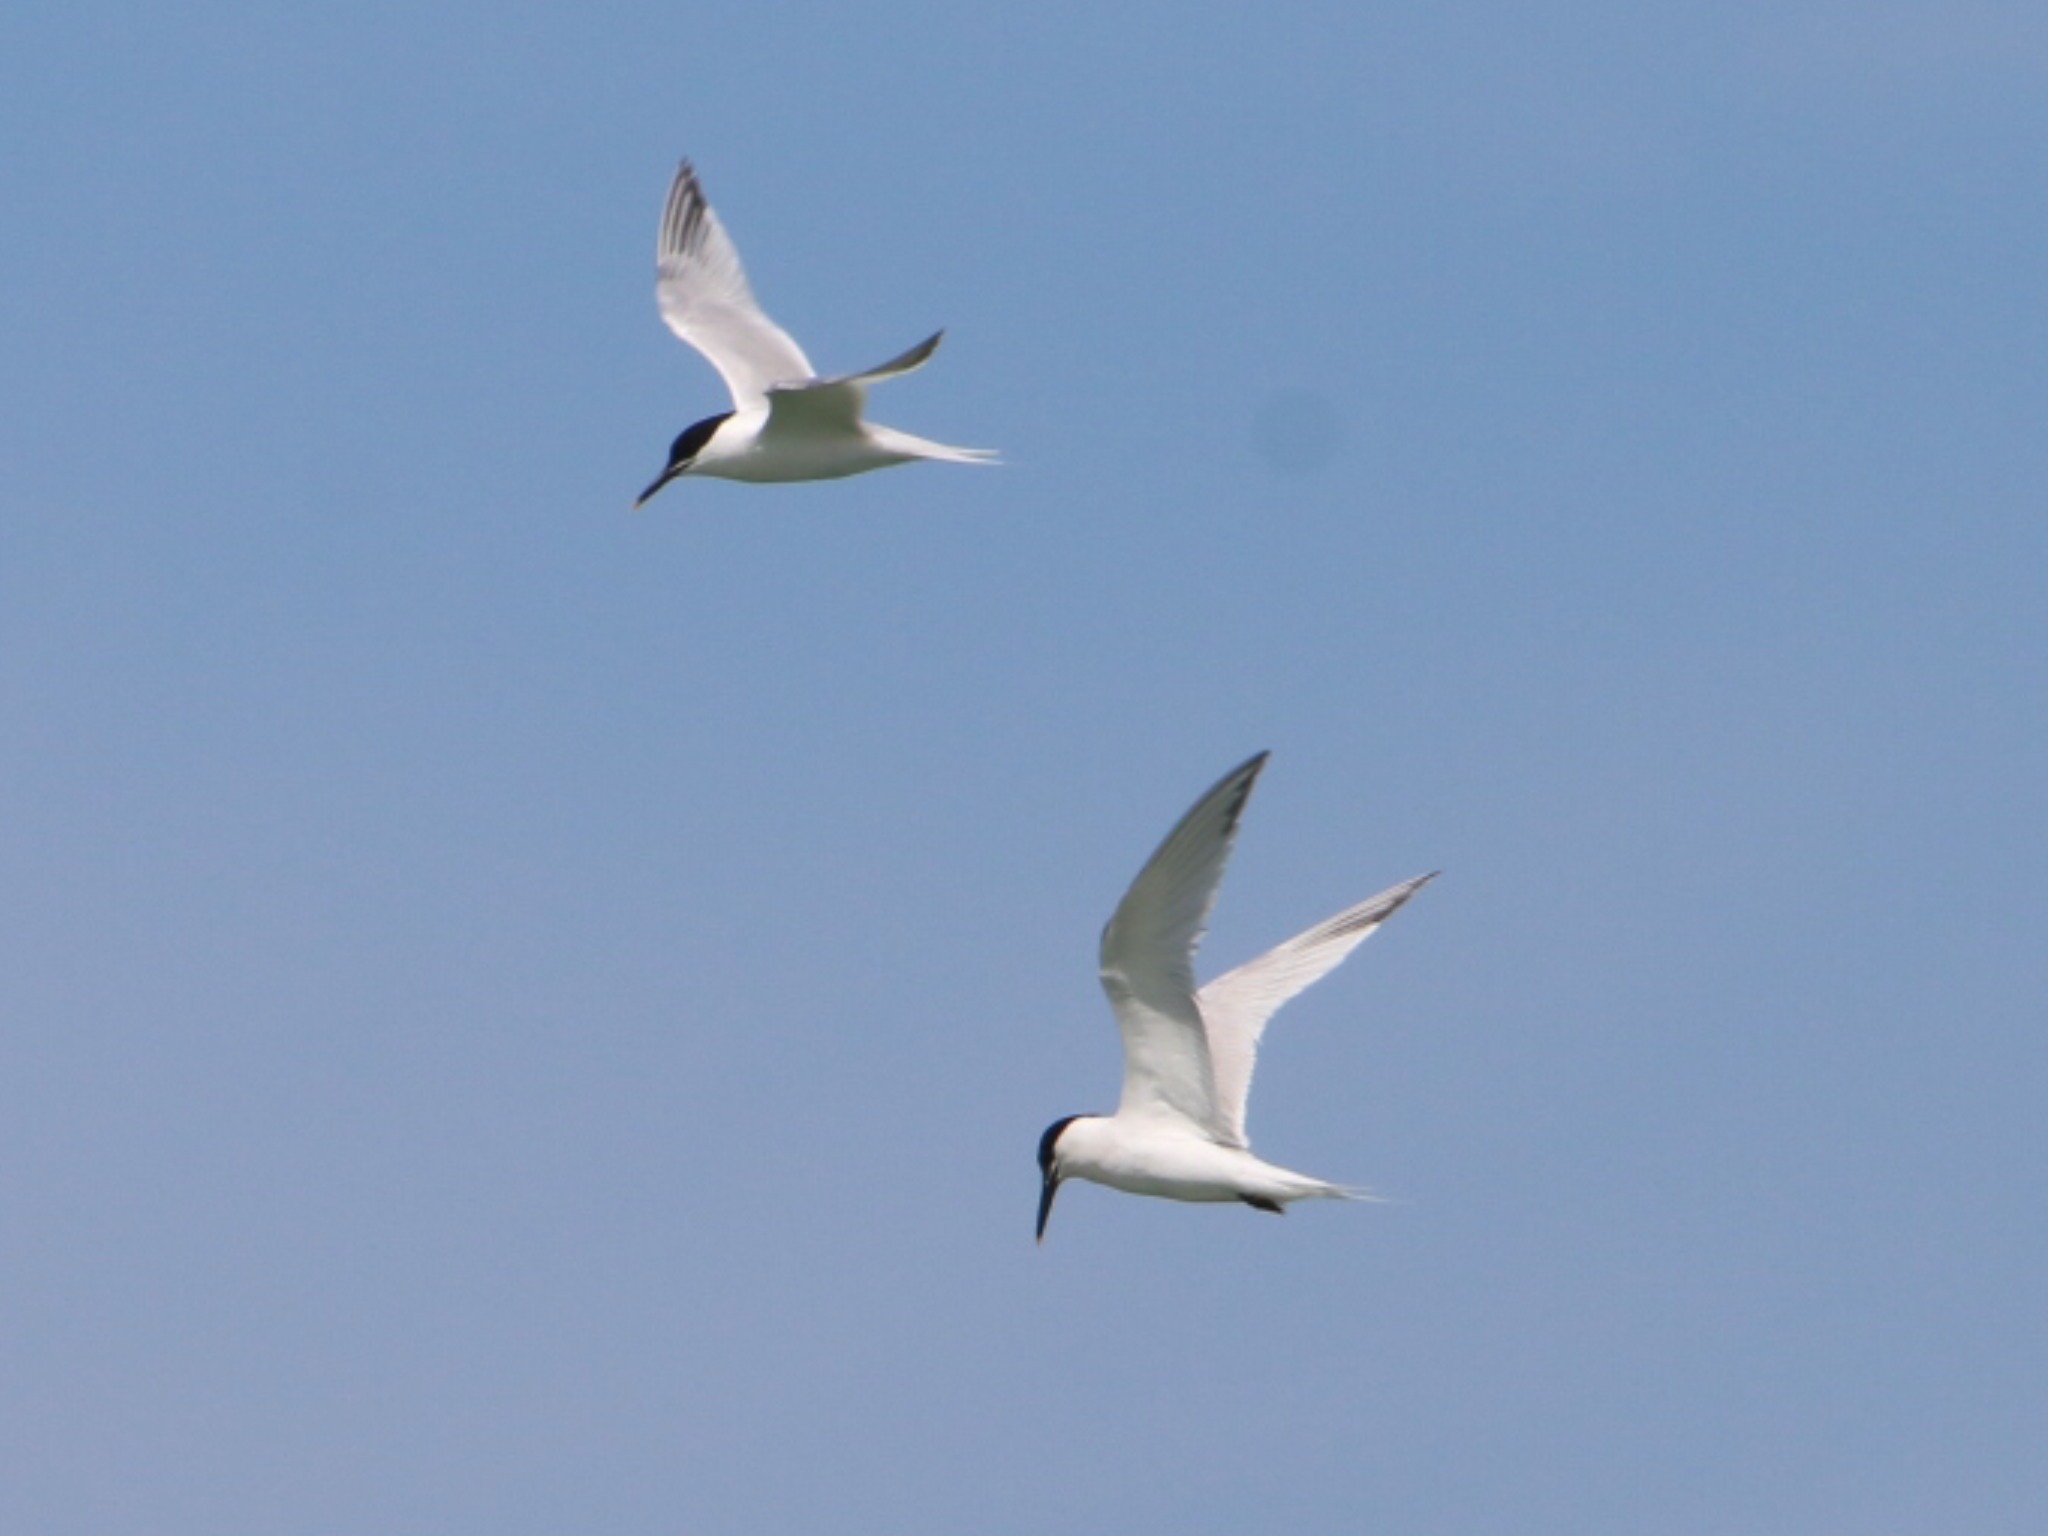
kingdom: Animalia
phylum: Chordata
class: Aves
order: Charadriiformes
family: Laridae
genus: Thalasseus
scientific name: Thalasseus sandvicensis
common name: Splitterne
